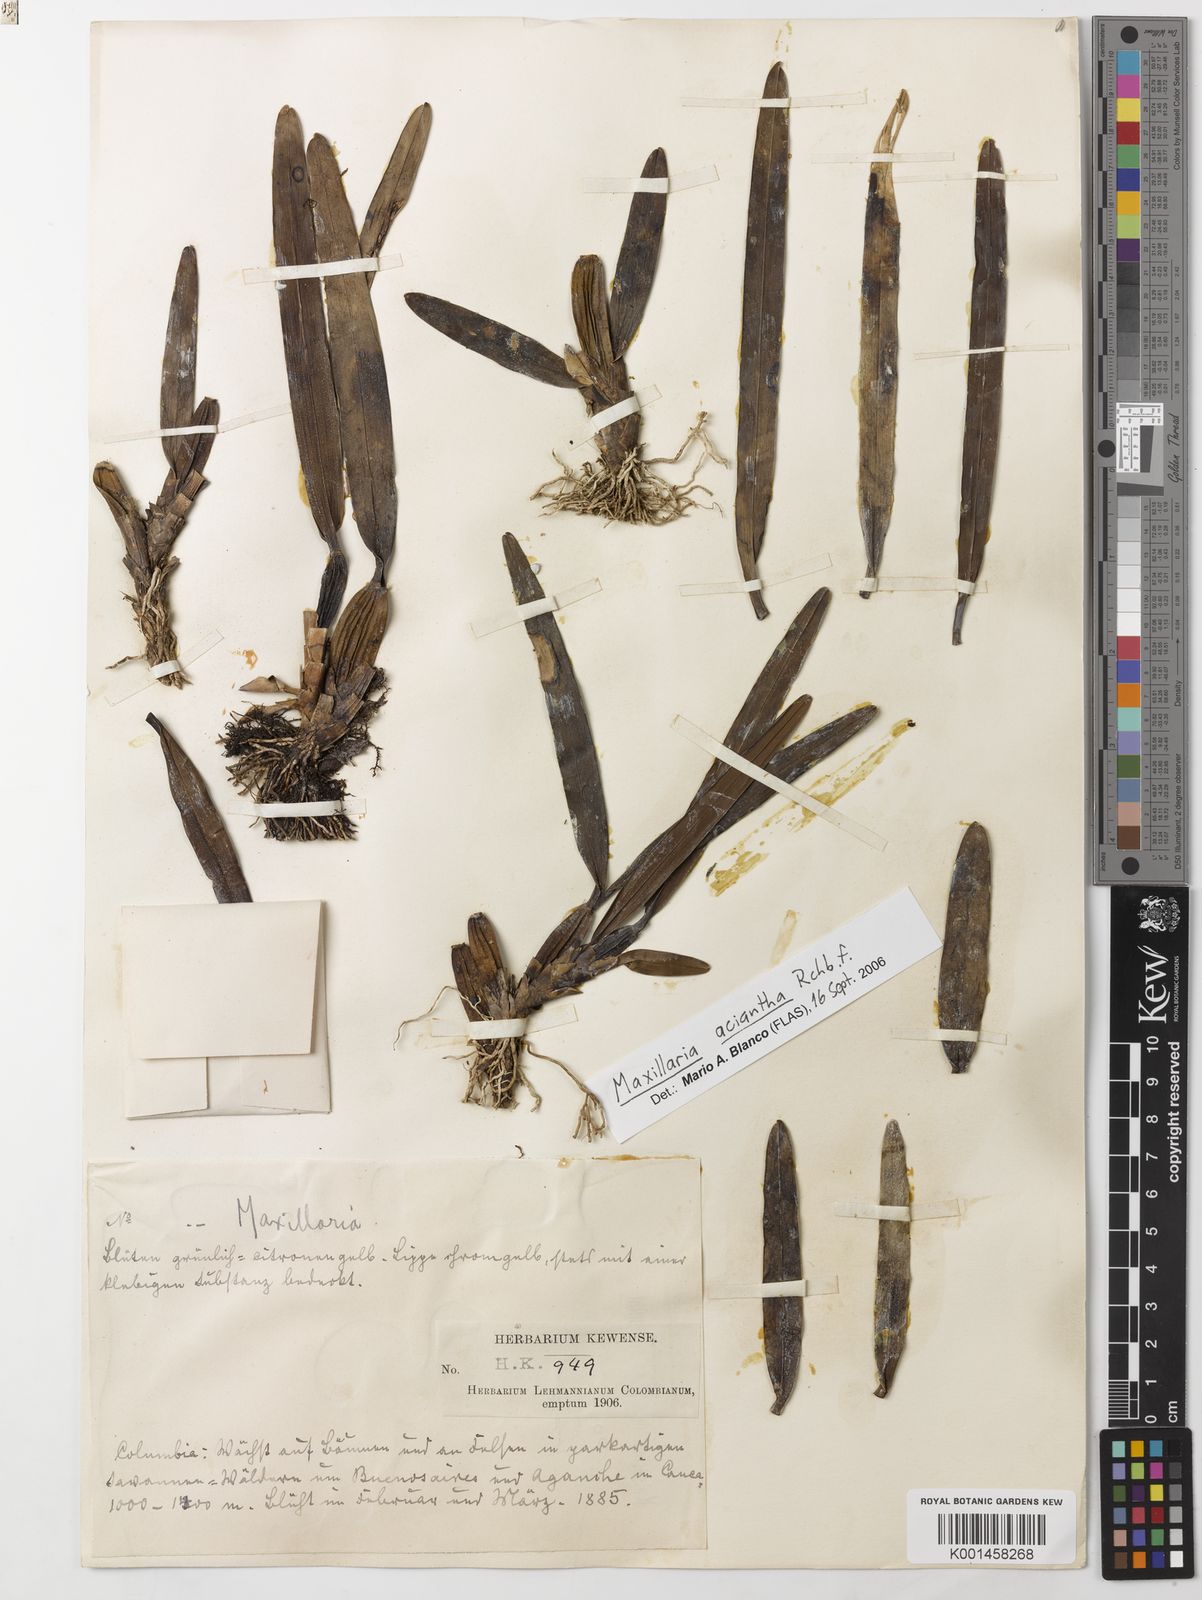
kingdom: Plantae
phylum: Tracheophyta
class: Liliopsida
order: Asparagales
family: Orchidaceae
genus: Maxillaria
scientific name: Maxillaria aciantha
